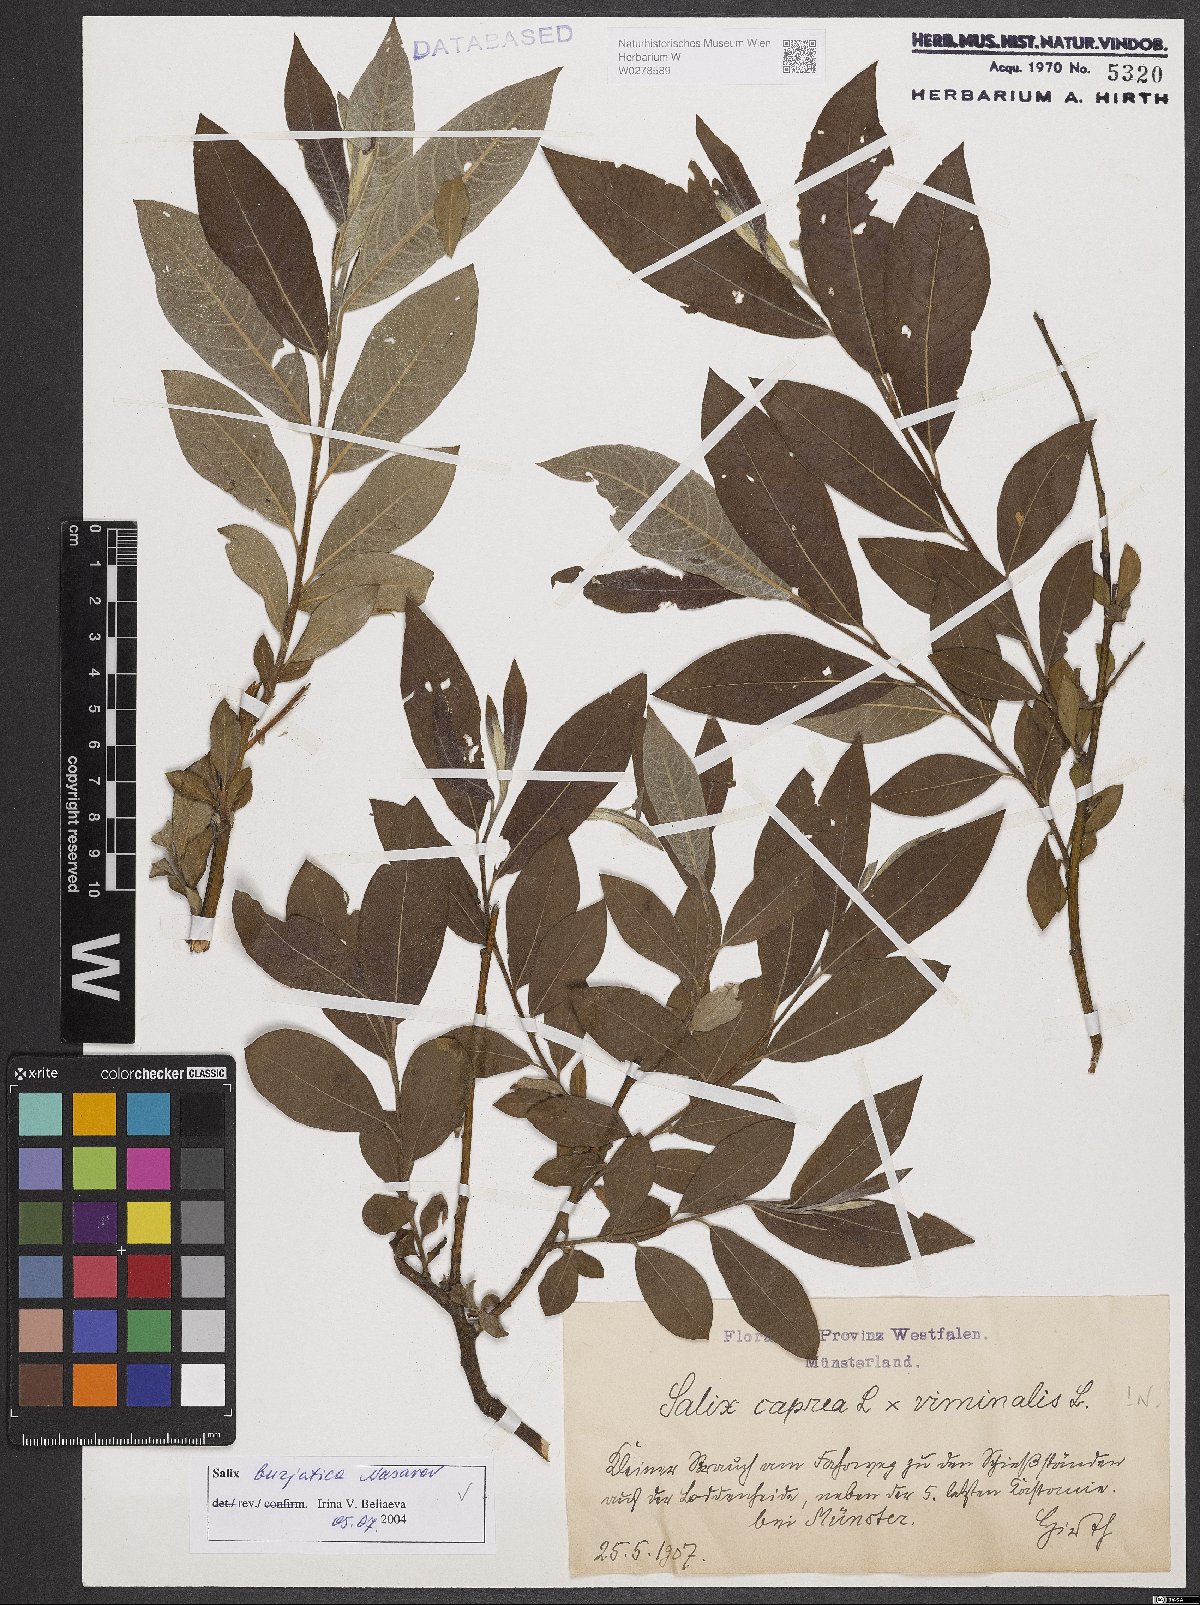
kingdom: Plantae
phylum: Tracheophyta
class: Magnoliopsida
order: Malpighiales
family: Salicaceae
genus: Salix
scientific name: Salix gmelinii
